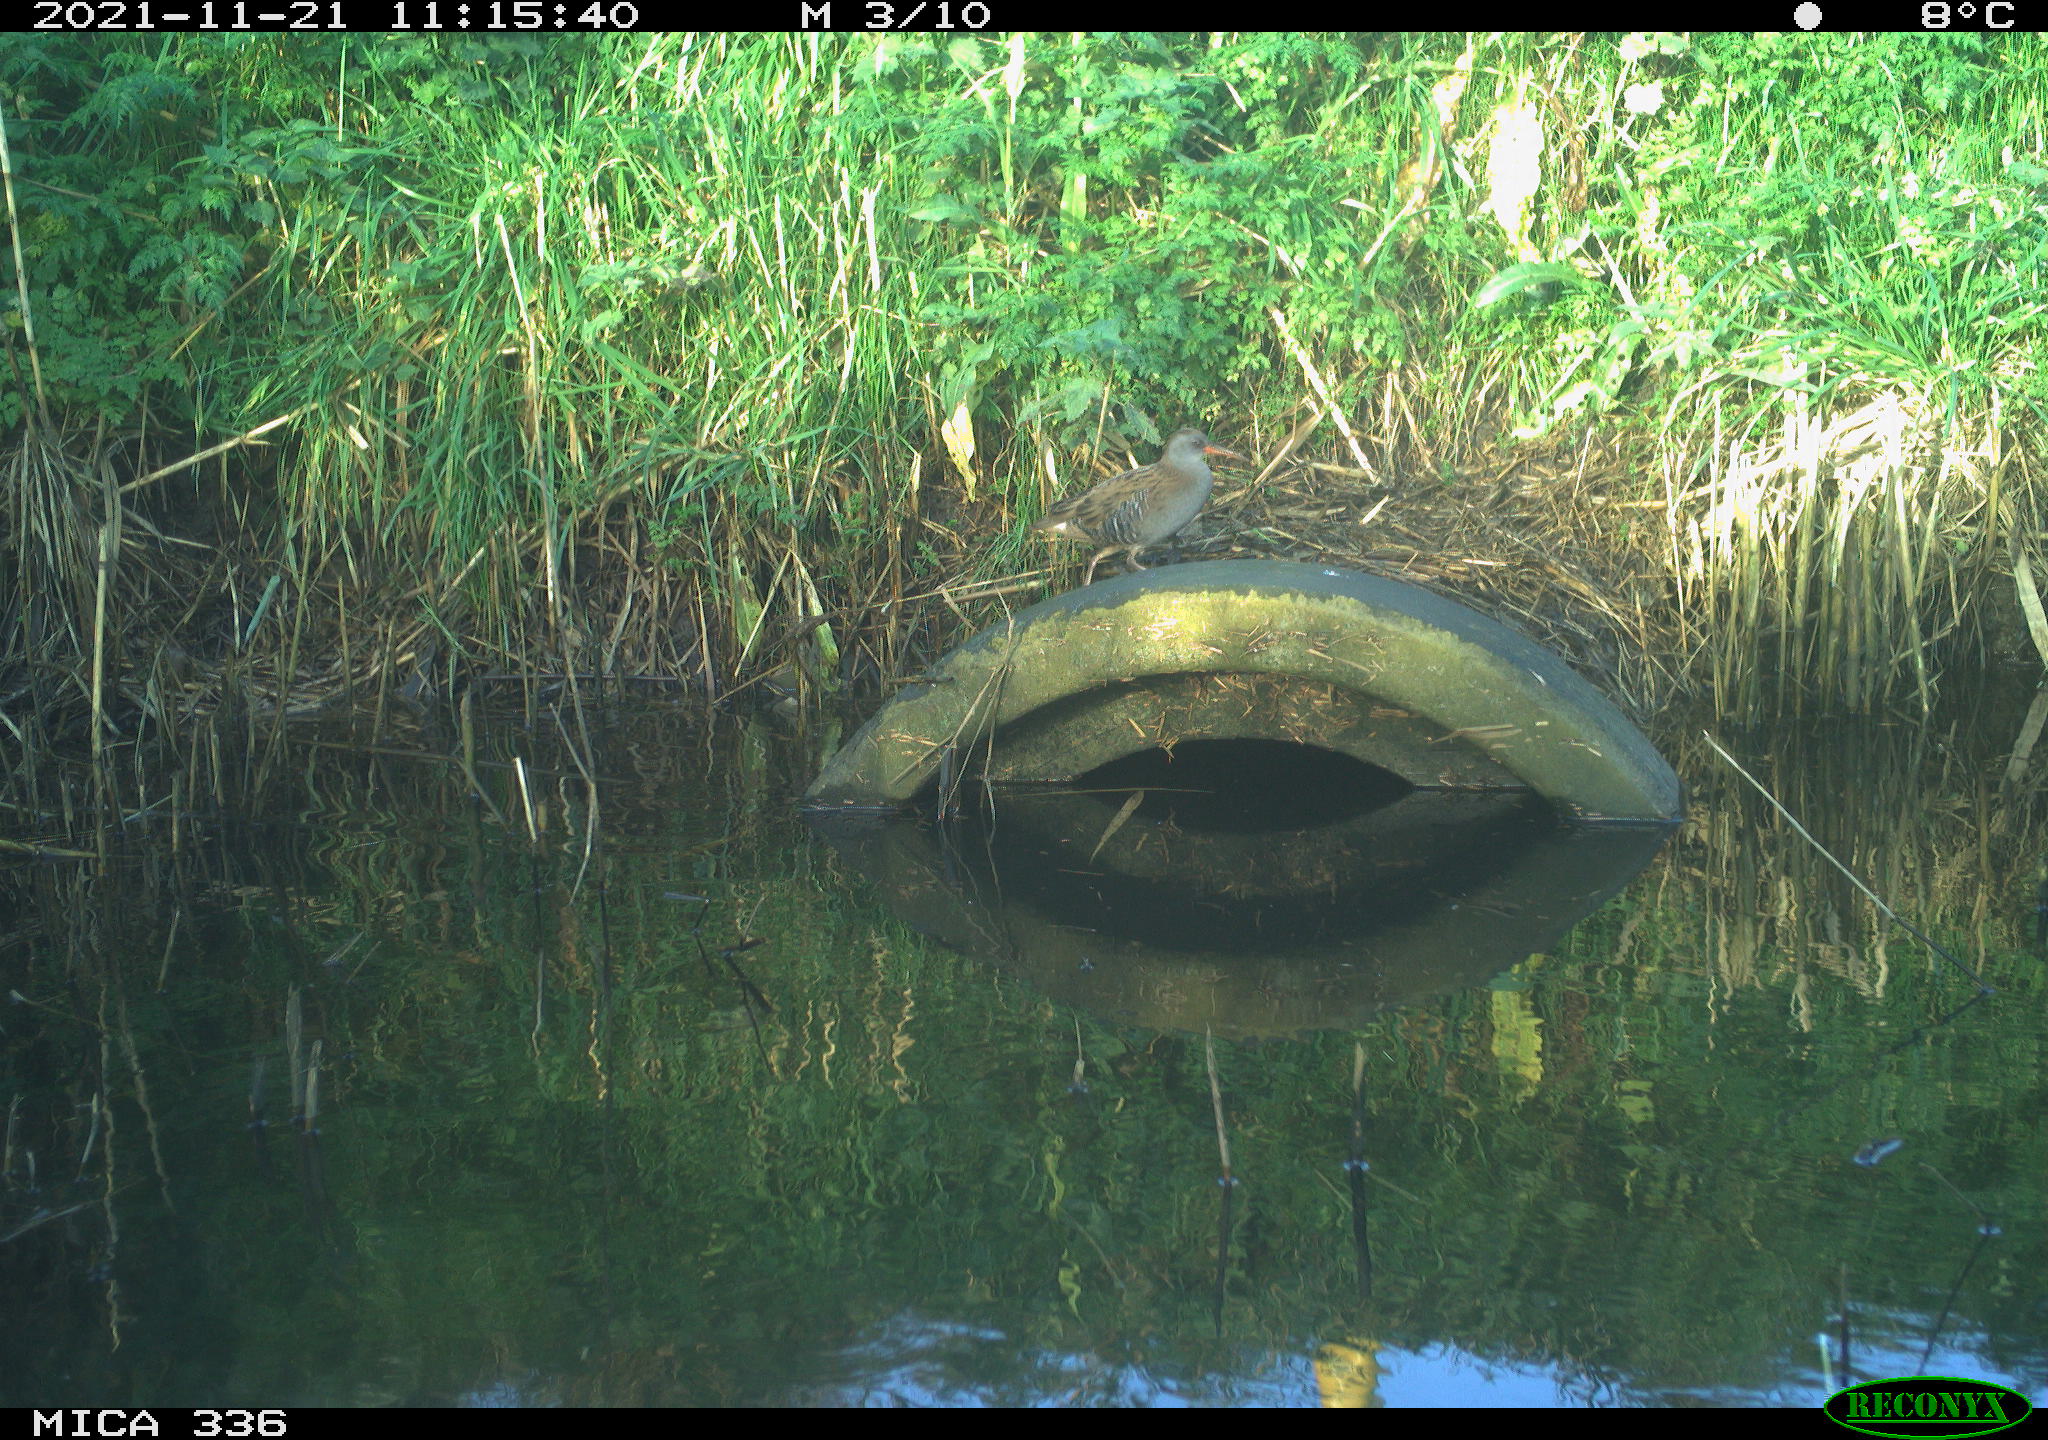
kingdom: Animalia
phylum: Chordata
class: Aves
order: Gruiformes
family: Rallidae
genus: Gallinula
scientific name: Gallinula chloropus
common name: Common moorhen
